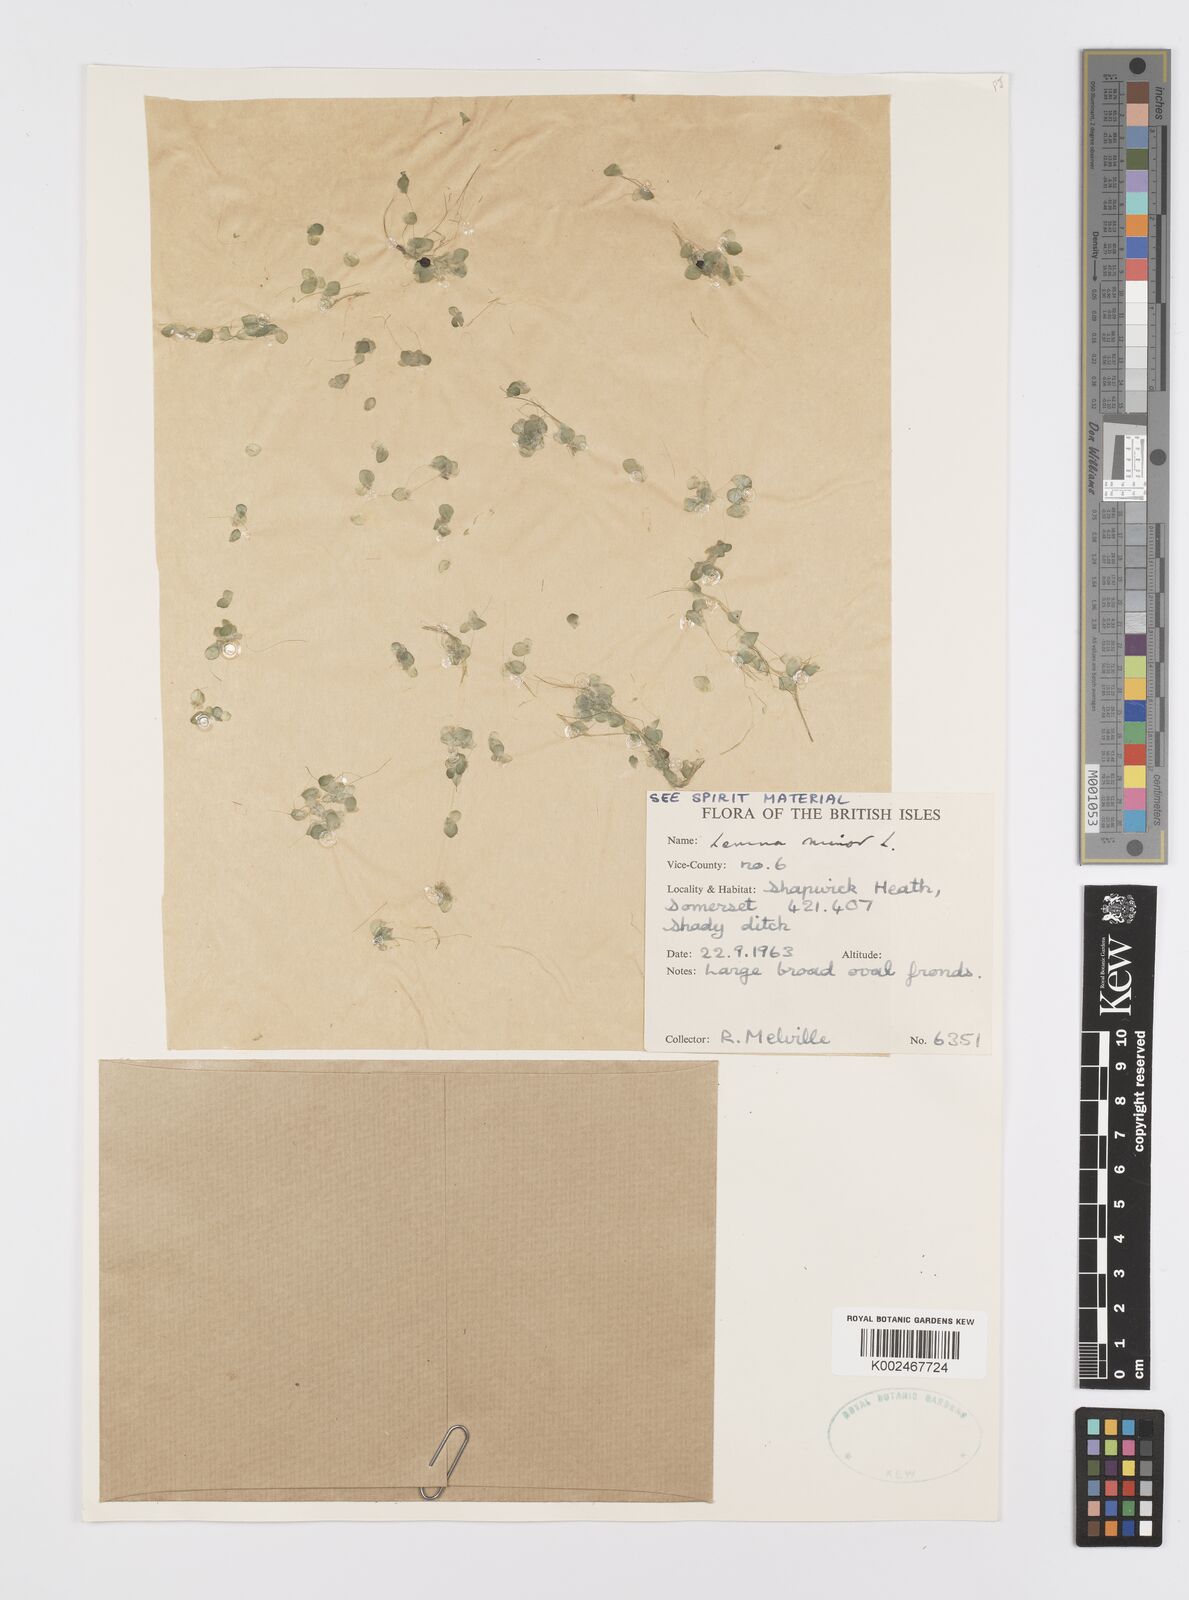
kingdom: Plantae
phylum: Tracheophyta
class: Liliopsida
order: Alismatales
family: Araceae
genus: Lemna
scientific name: Lemna minor
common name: Common duckweed
